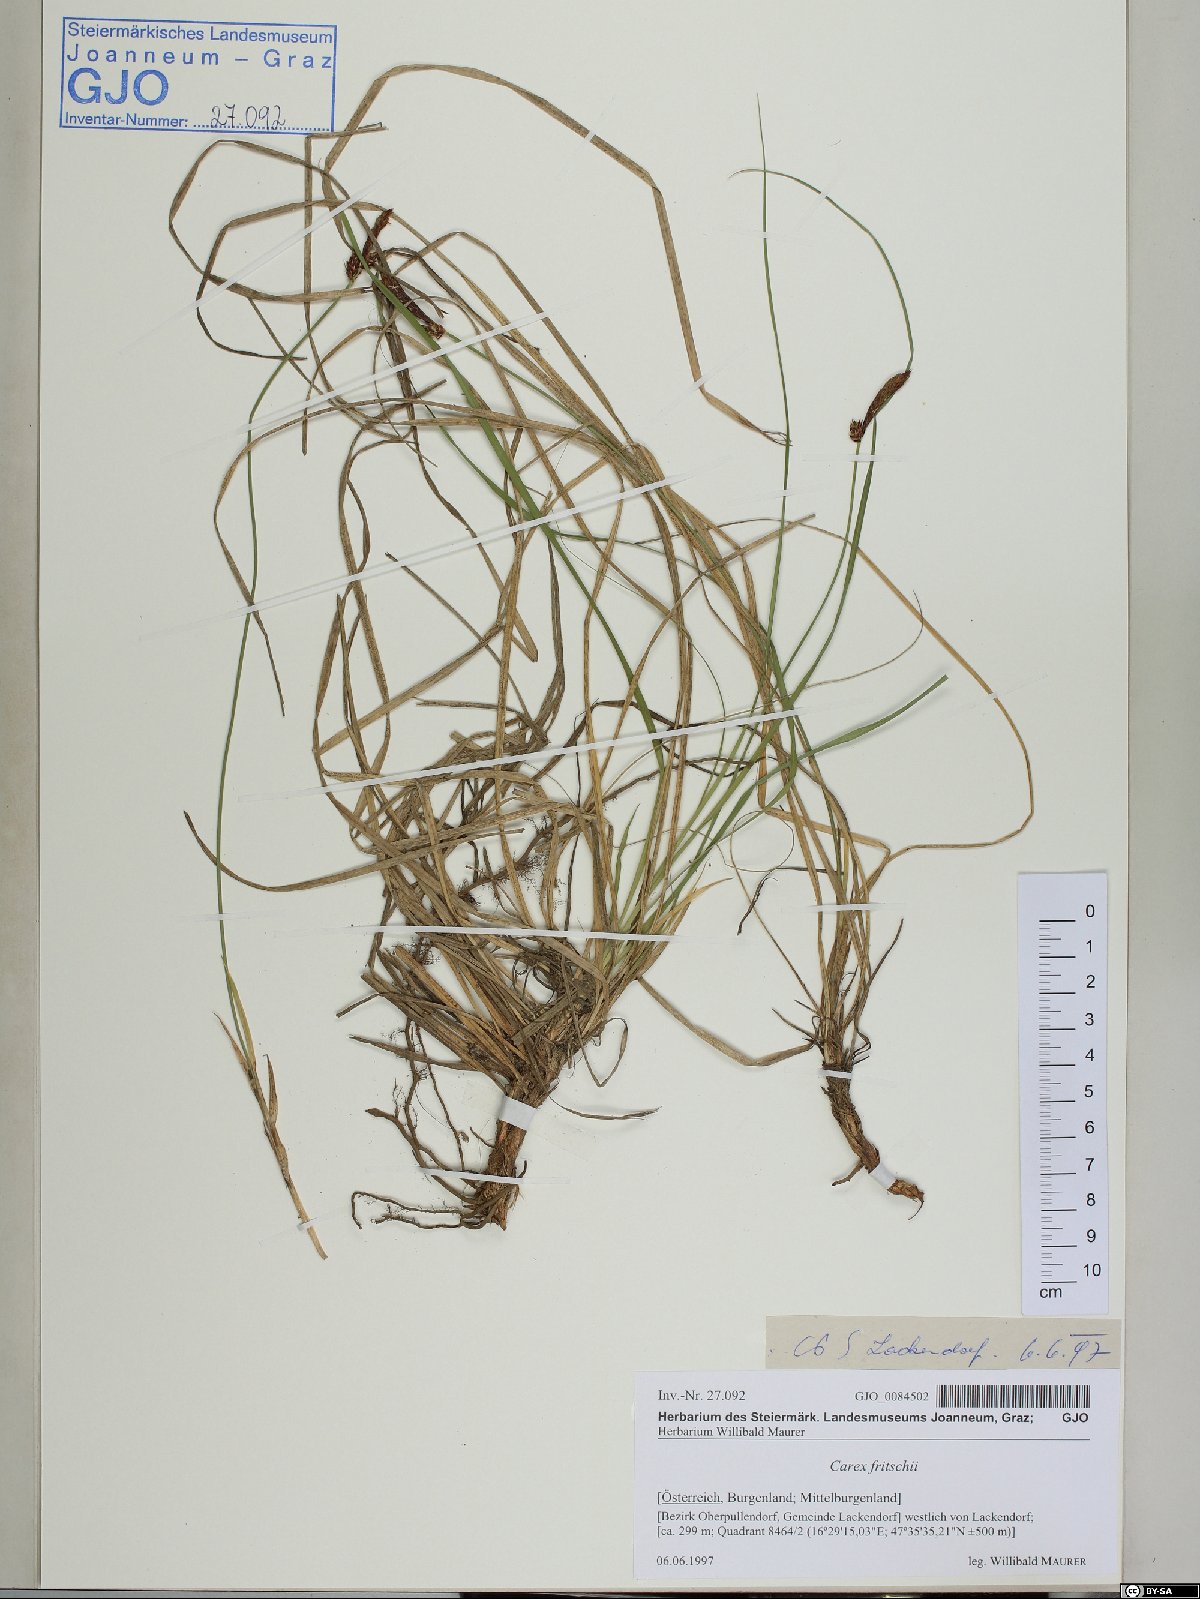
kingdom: Plantae
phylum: Tracheophyta
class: Liliopsida
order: Poales
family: Cyperaceae
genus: Carex
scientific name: Carex fritschii
